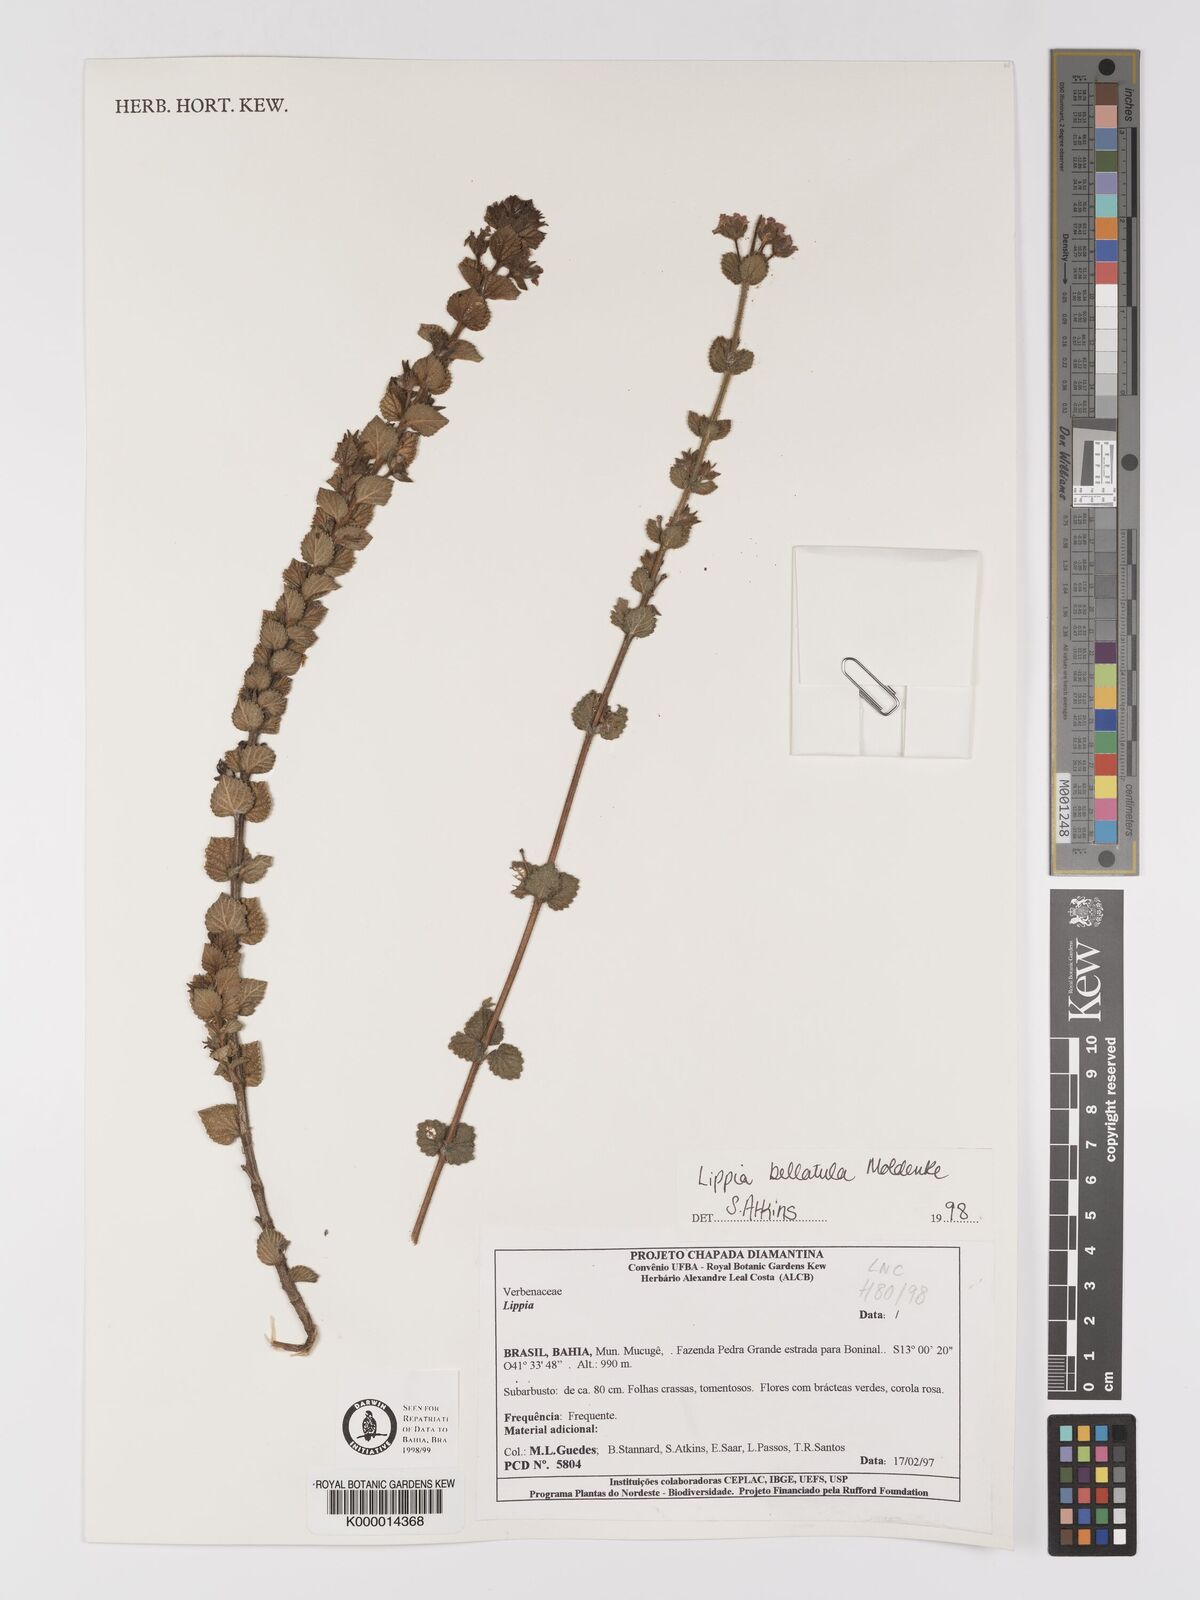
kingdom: Plantae
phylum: Tracheophyta
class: Magnoliopsida
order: Lamiales
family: Verbenaceae
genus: Lippia
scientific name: Lippia bellatula
